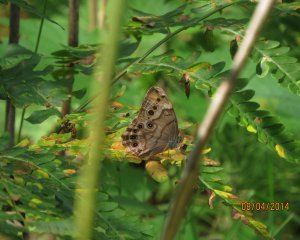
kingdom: Animalia
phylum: Arthropoda
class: Insecta
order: Lepidoptera
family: Nymphalidae
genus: Lethe
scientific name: Lethe anthedon
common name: Northern Pearly-Eye
